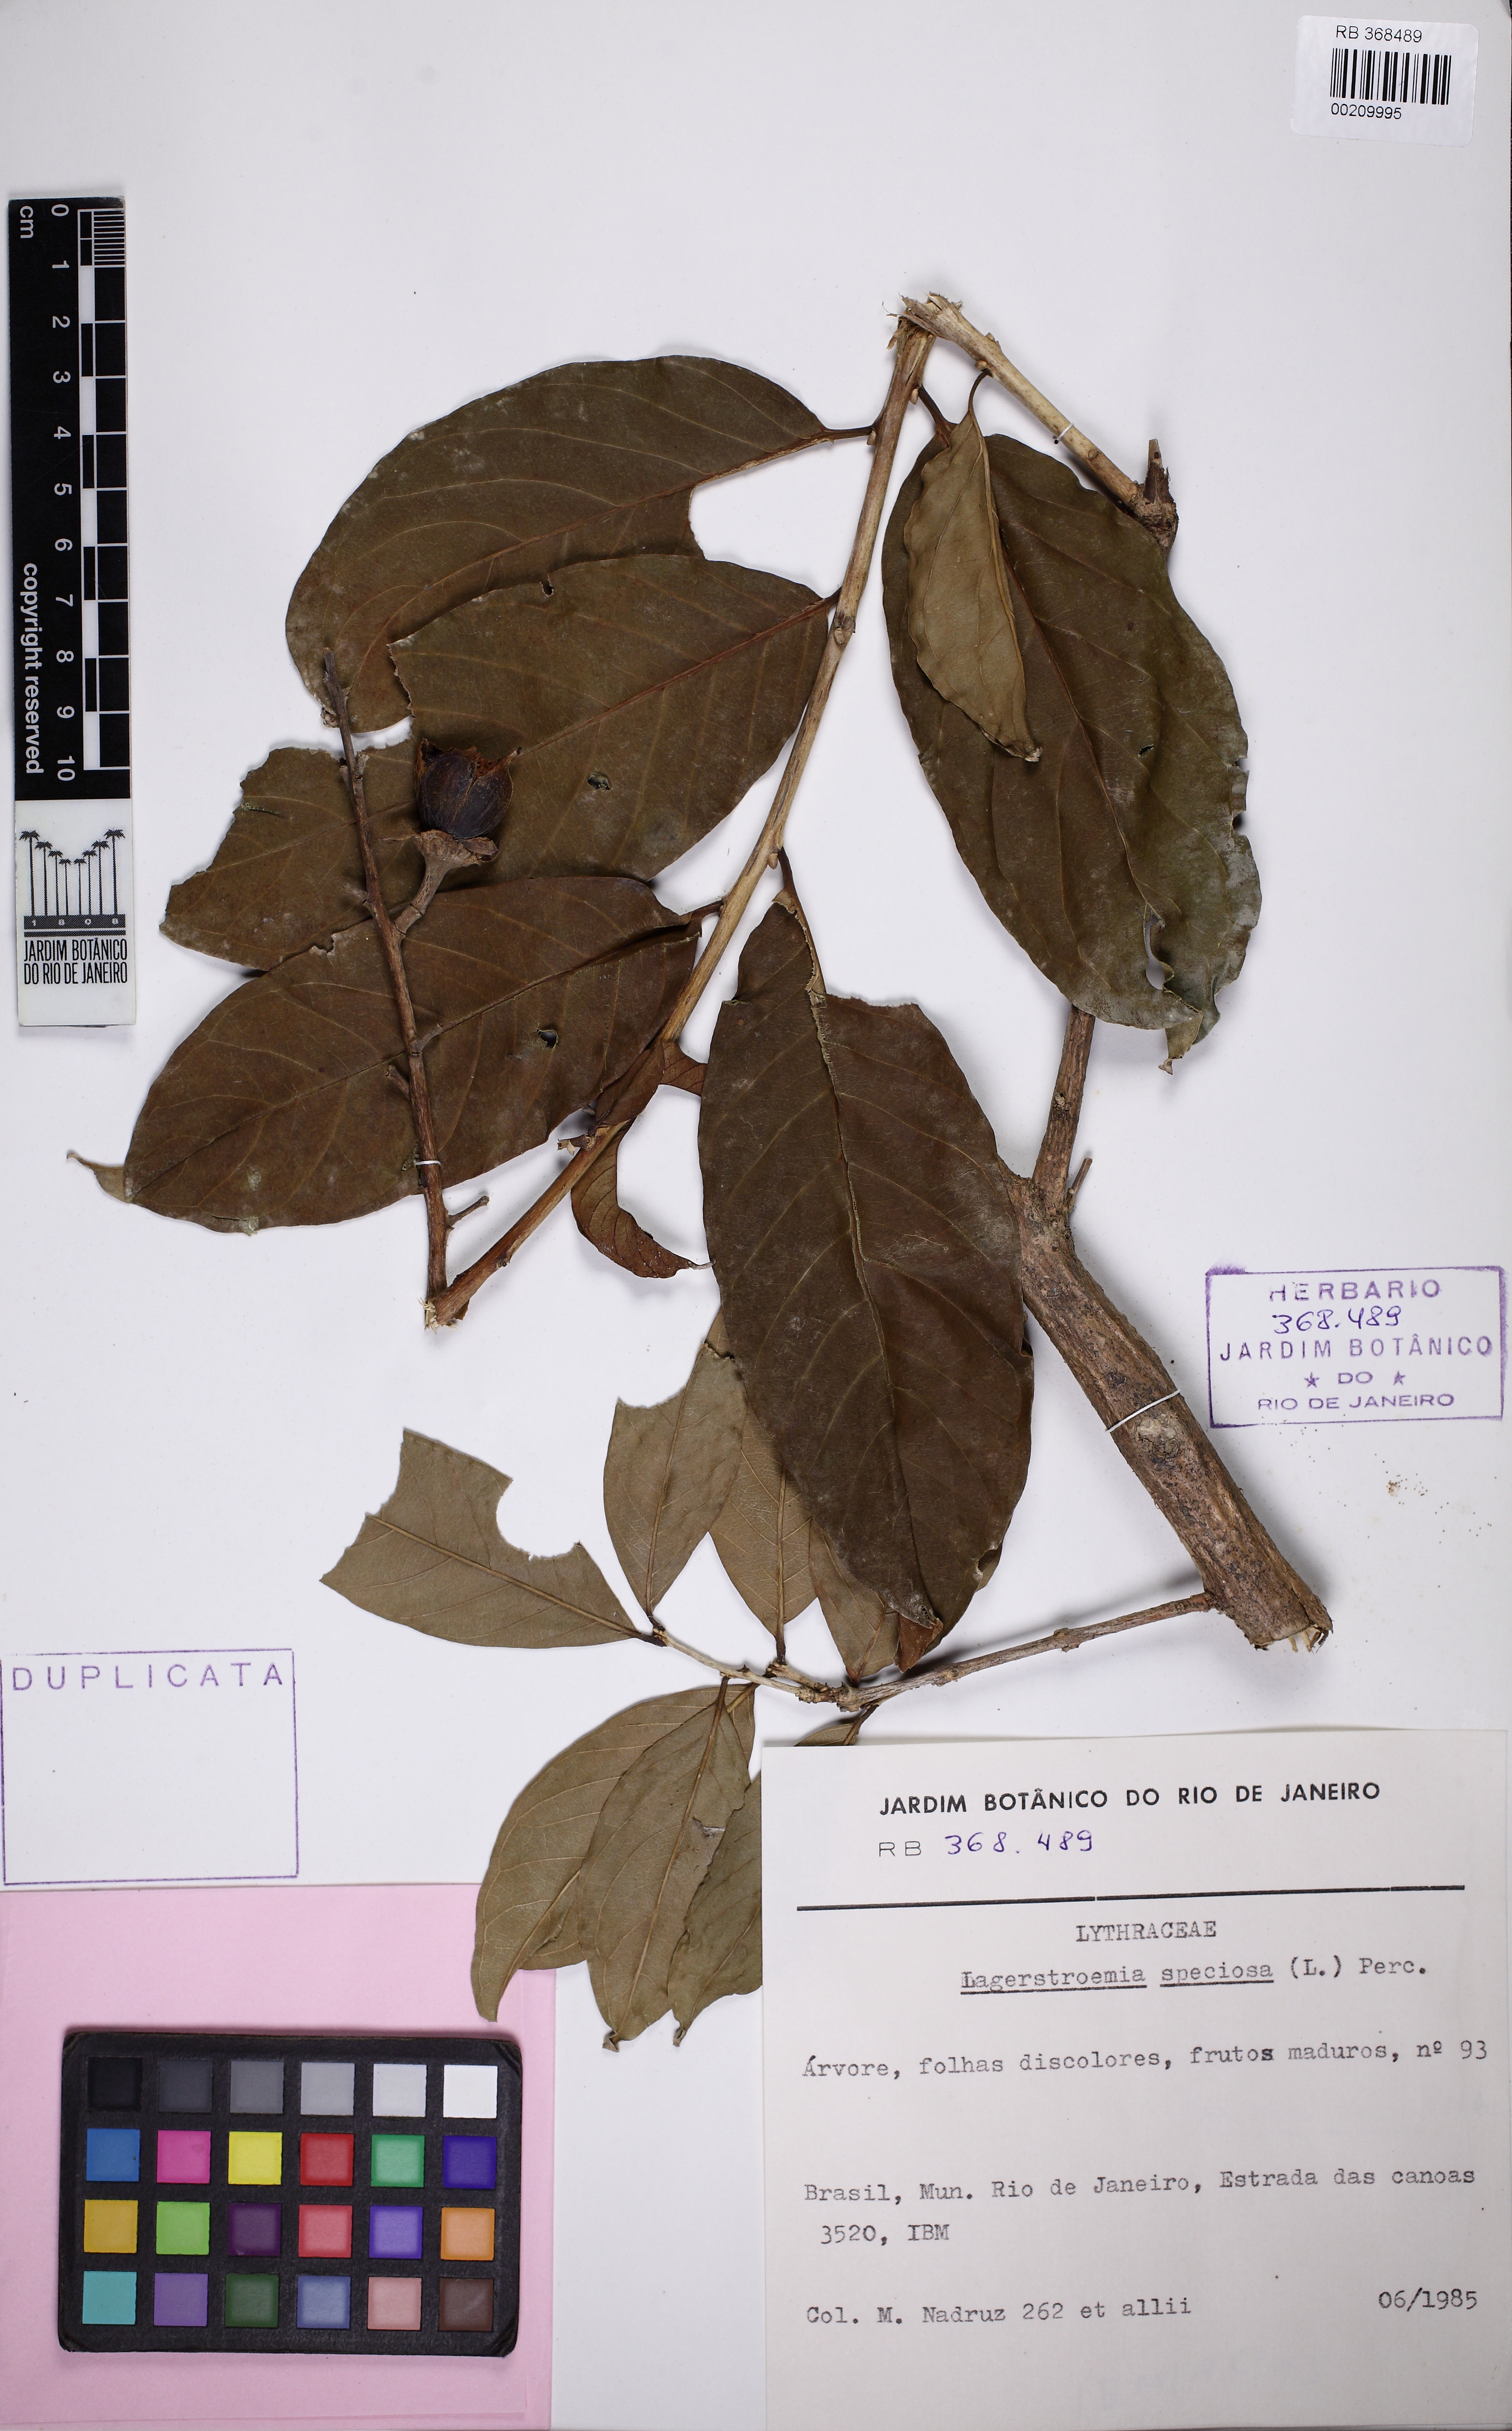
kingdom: Plantae
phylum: Tracheophyta
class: Magnoliopsida
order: Myrtales
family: Lythraceae
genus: Lagerstroemia
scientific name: Lagerstroemia speciosa
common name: Queen's crape-myrtle
